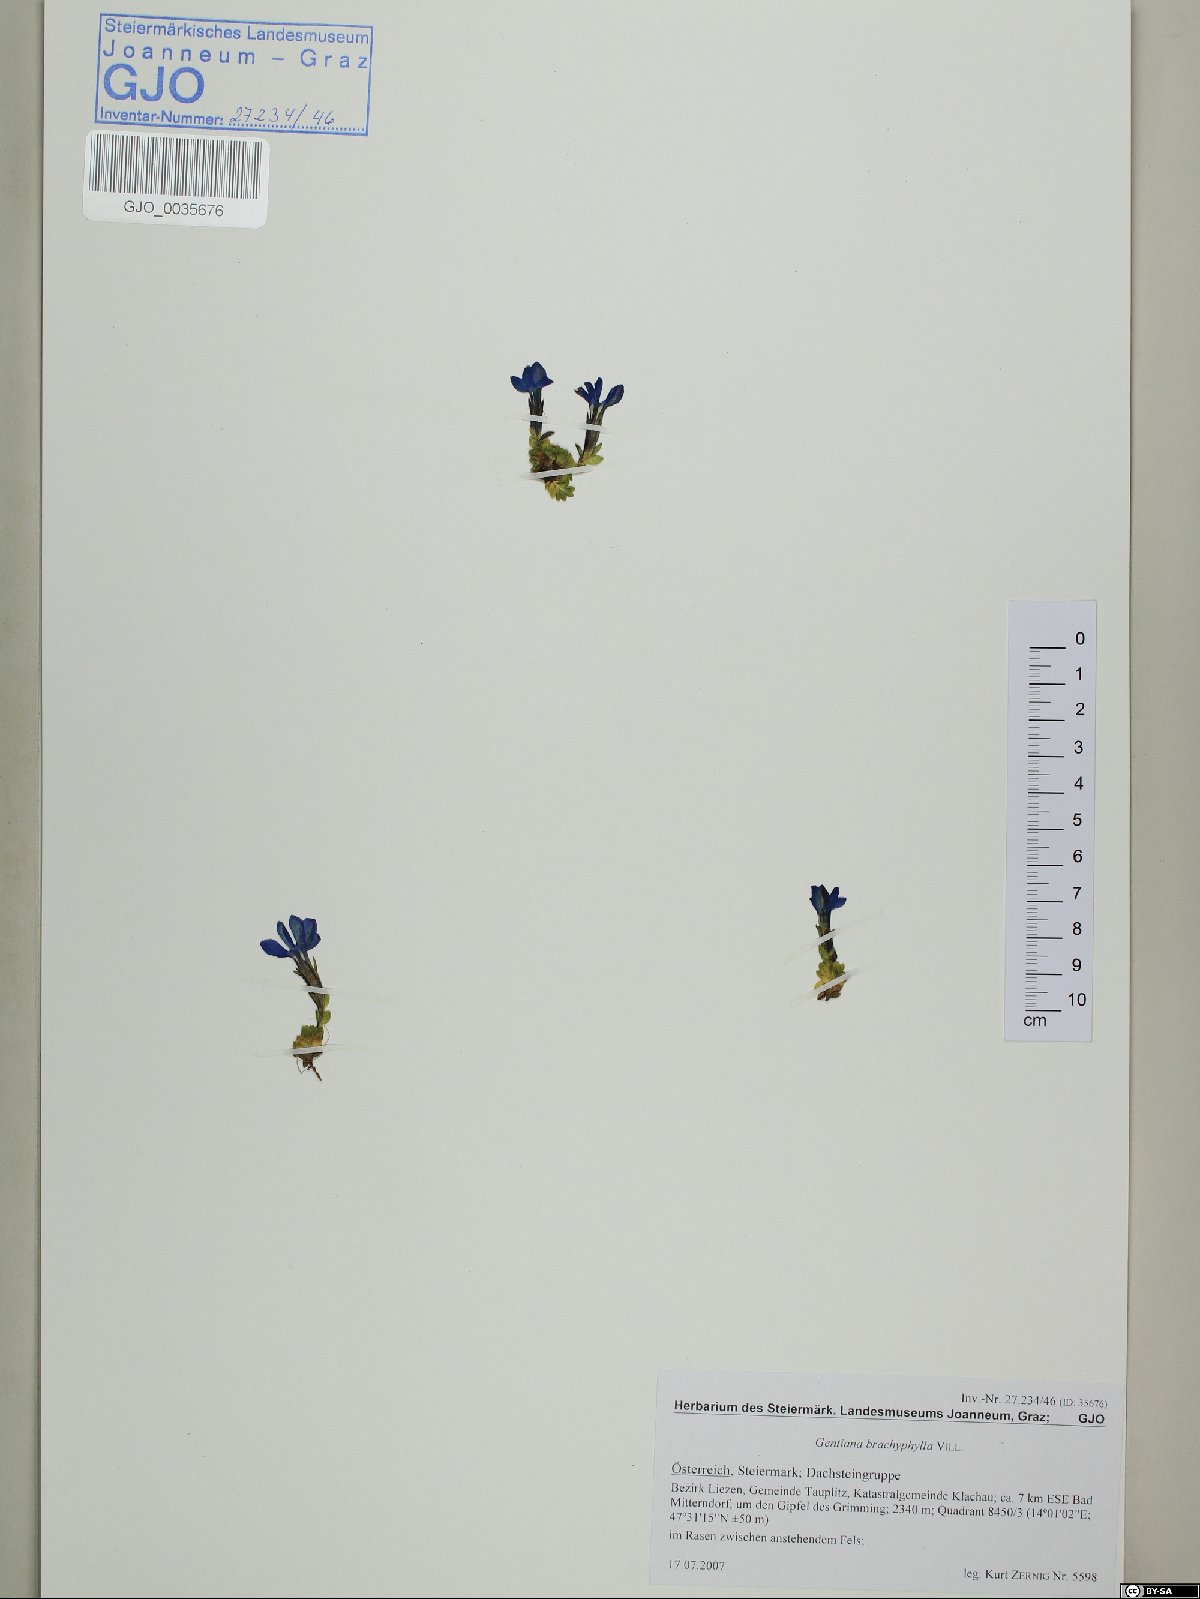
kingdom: Plantae
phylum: Tracheophyta
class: Magnoliopsida
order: Gentianales
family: Gentianaceae
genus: Gentiana
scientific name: Gentiana brachyphylla
